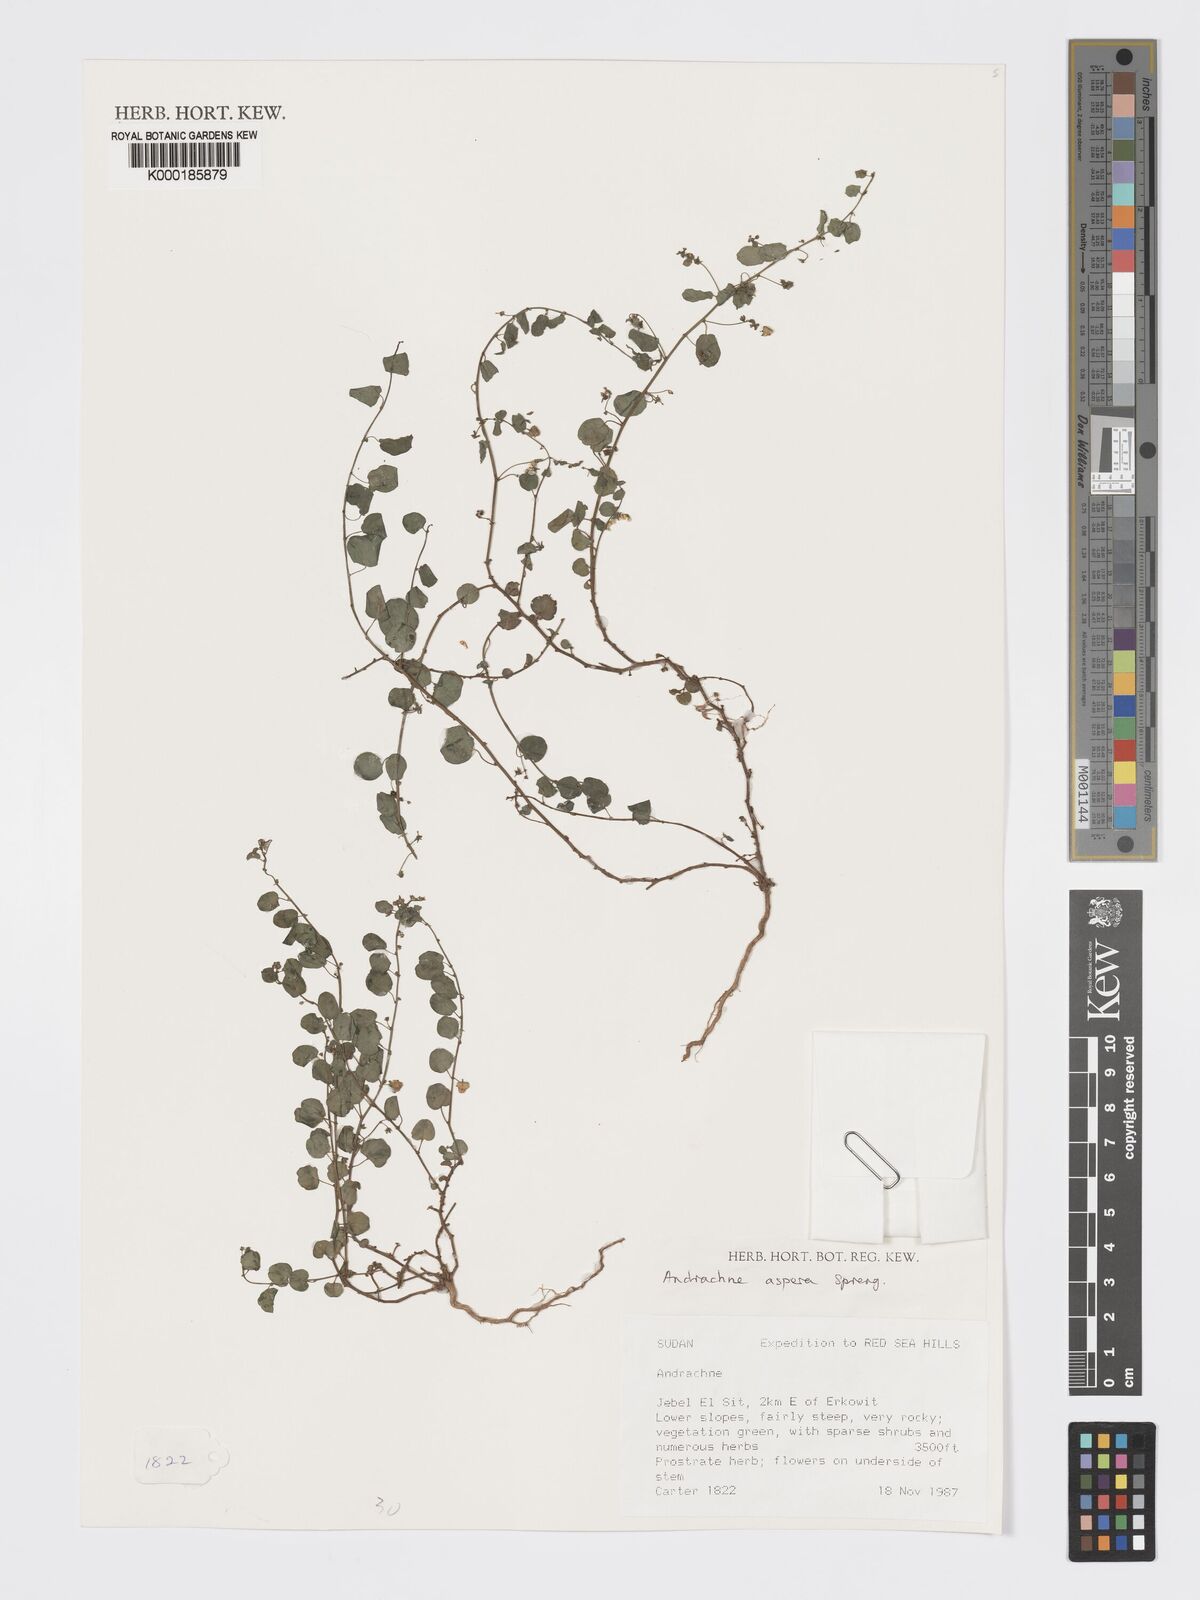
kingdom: Plantae
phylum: Tracheophyta
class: Magnoliopsida
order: Malpighiales
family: Phyllanthaceae
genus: Andrachne
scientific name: Andrachne aspera
